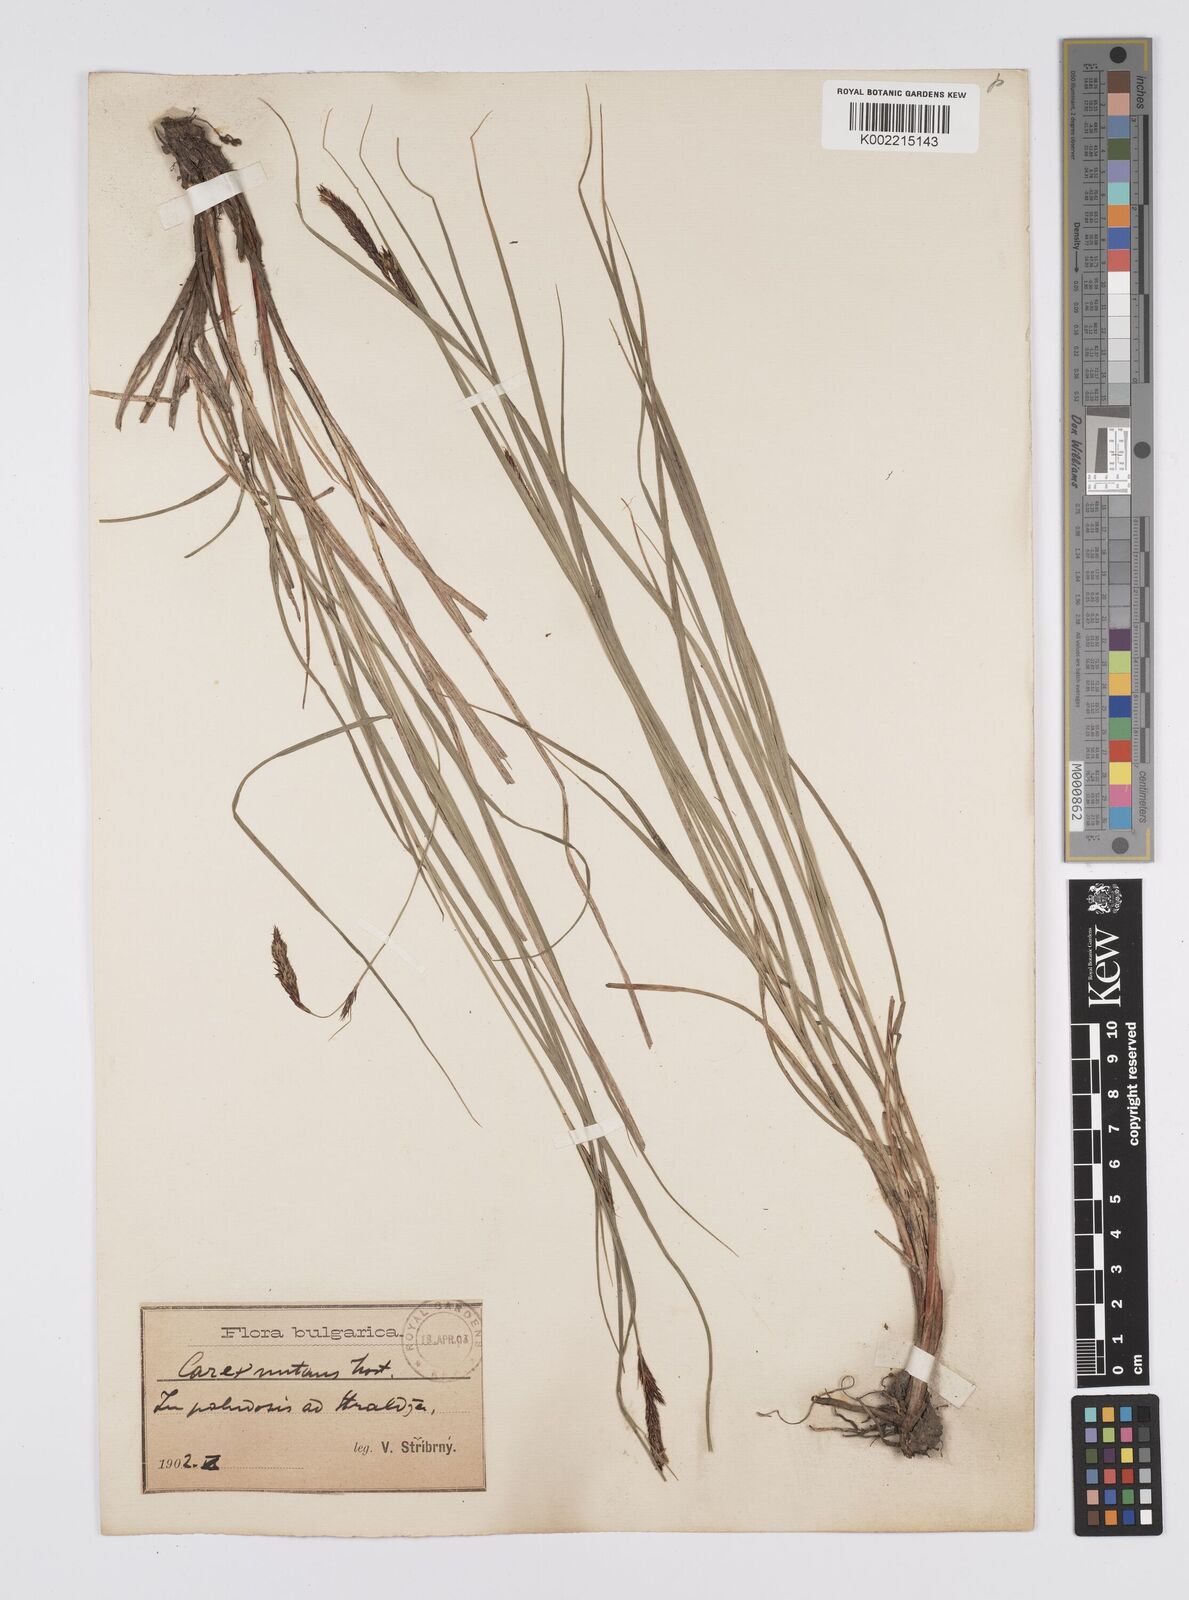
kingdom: Plantae
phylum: Tracheophyta
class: Liliopsida
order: Poales
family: Cyperaceae
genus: Carex
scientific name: Carex melanostachya
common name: Black-spiked sedge
